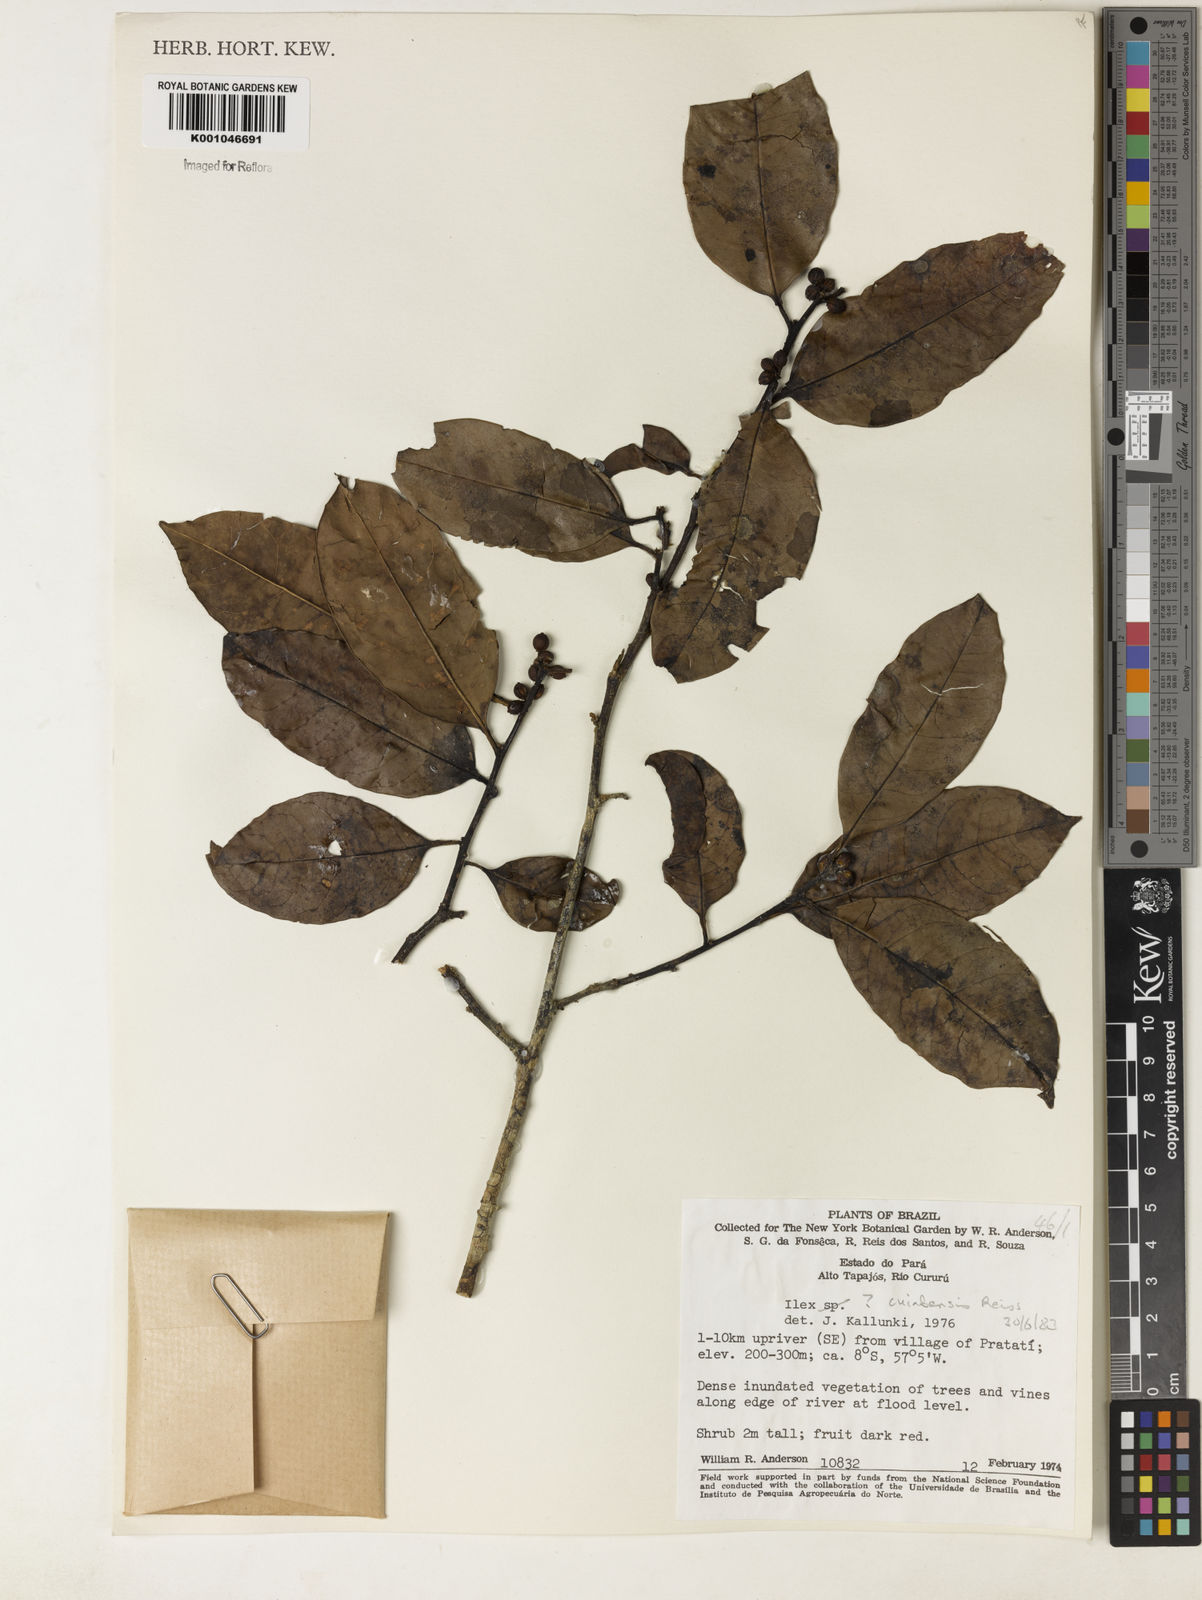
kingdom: Plantae
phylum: Tracheophyta
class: Magnoliopsida
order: Aquifoliales
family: Aquifoliaceae
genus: Ilex
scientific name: Ilex cuiabensis
